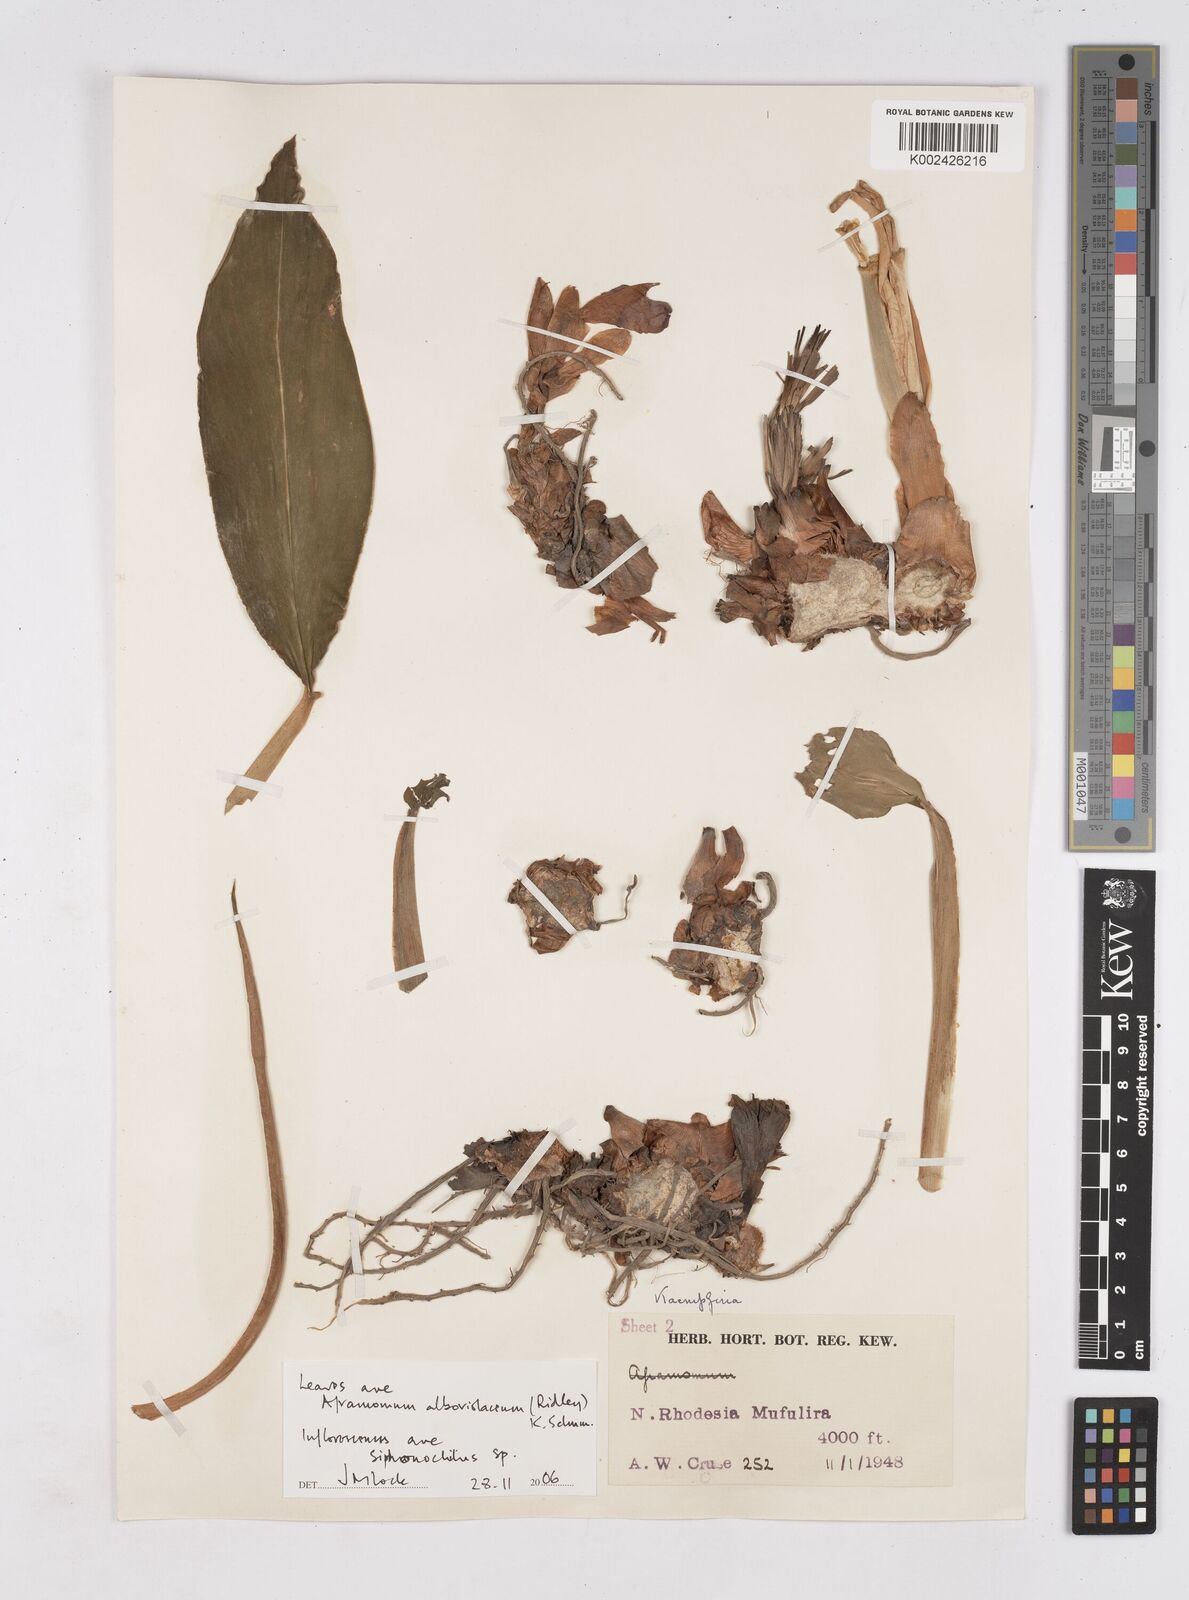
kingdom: Plantae
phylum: Tracheophyta
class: Liliopsida
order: Zingiberales
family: Zingiberaceae
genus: Siphonochilus
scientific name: Siphonochilus
